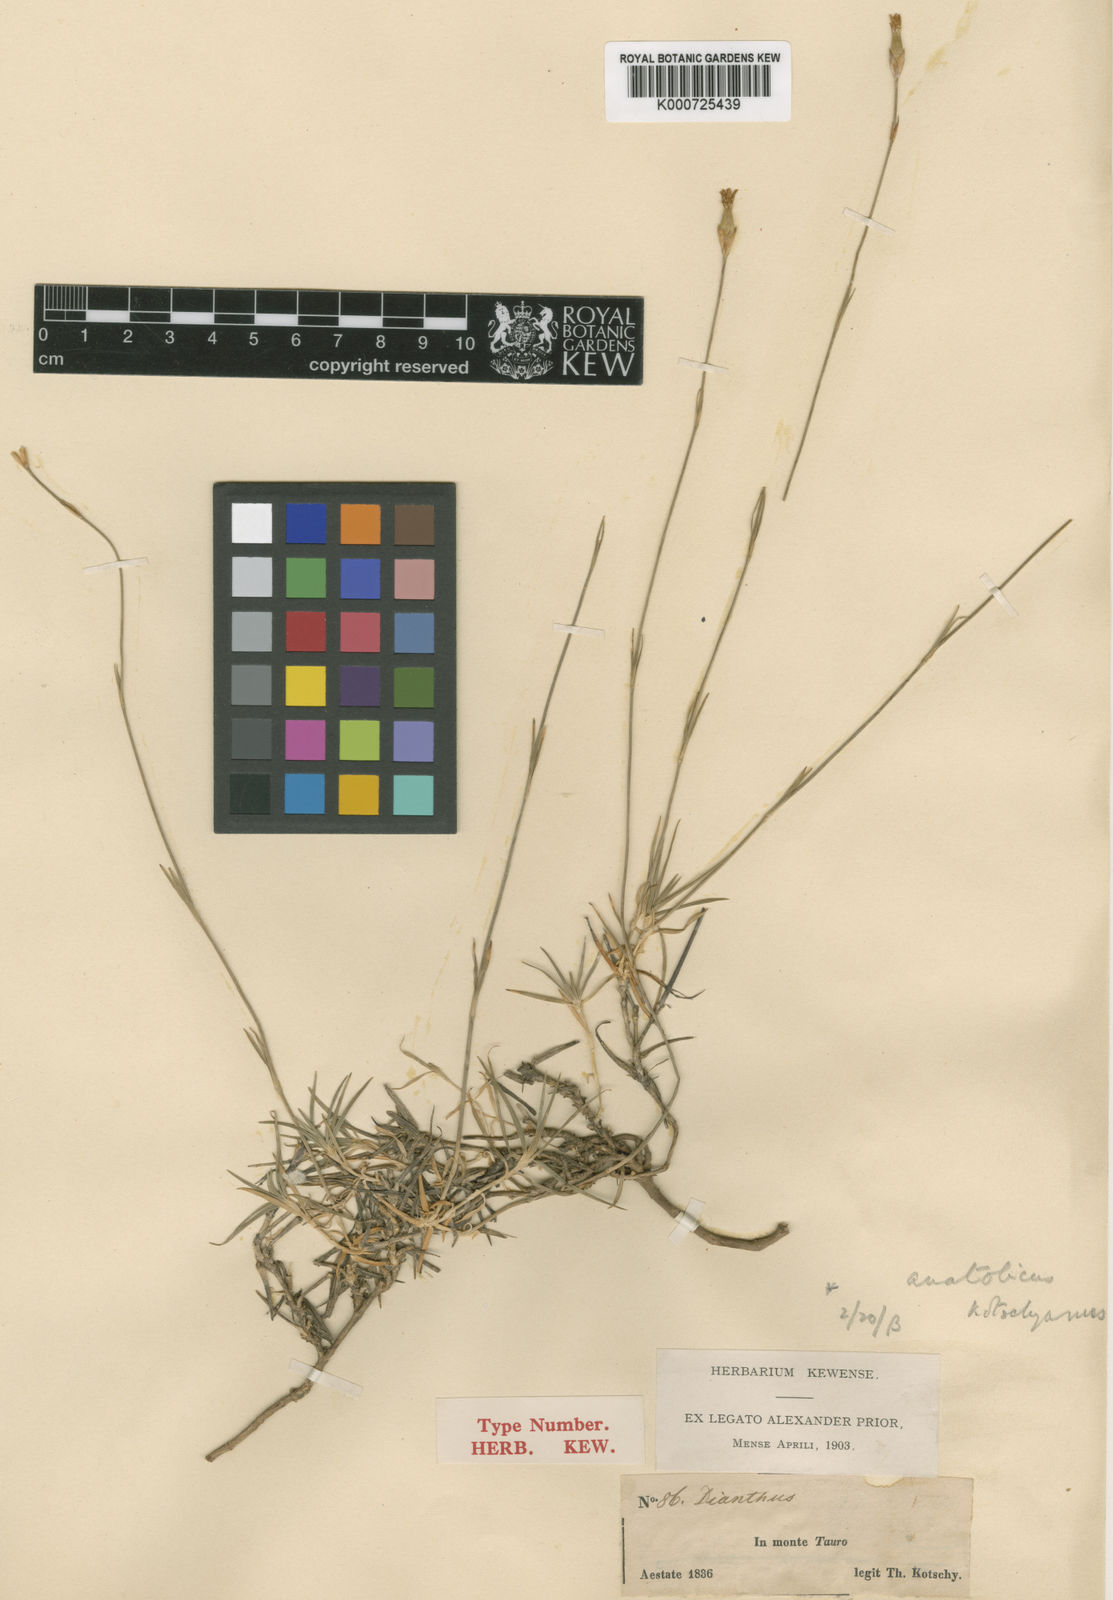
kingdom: Plantae
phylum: Tracheophyta
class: Magnoliopsida
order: Caryophyllales
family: Caryophyllaceae
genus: Dianthus
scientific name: Dianthus arpadianus
